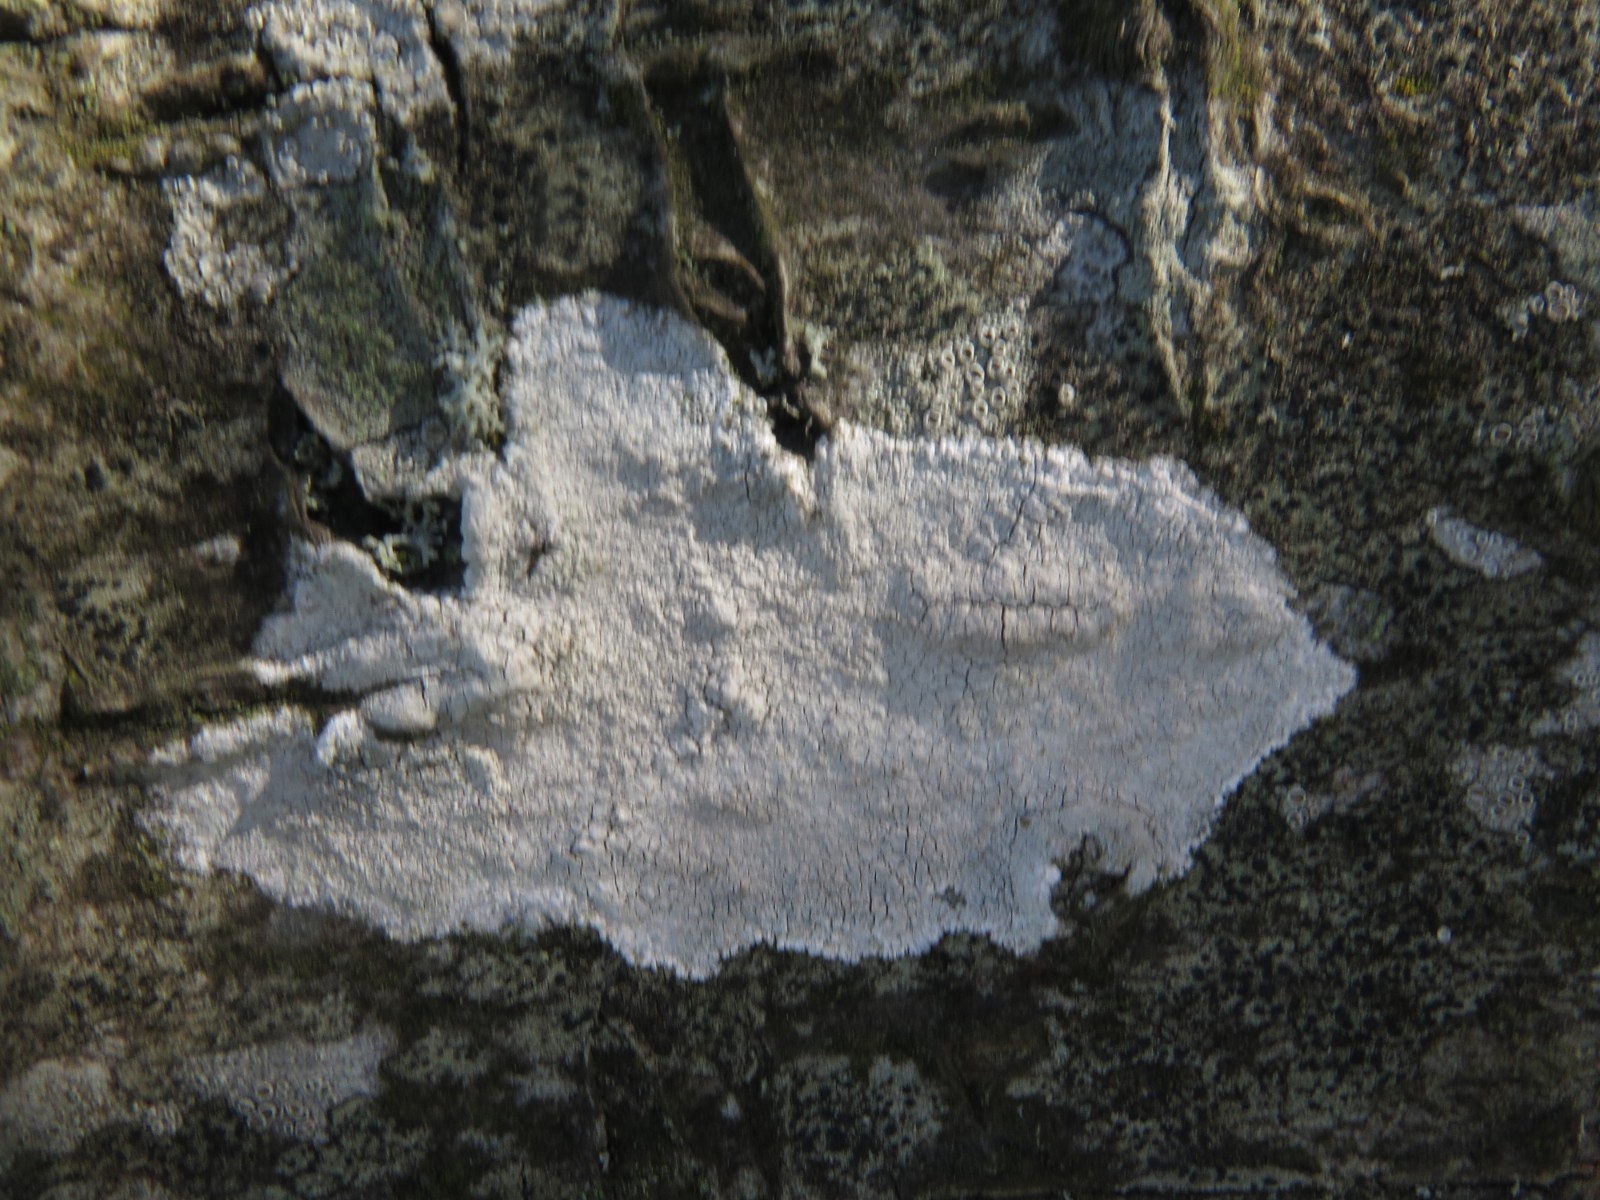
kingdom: Fungi
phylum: Ascomycota
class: Lecanoromycetes
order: Ostropales
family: Phlyctidaceae
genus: Phlyctis
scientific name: Phlyctis argena
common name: almindelig sølvlav
